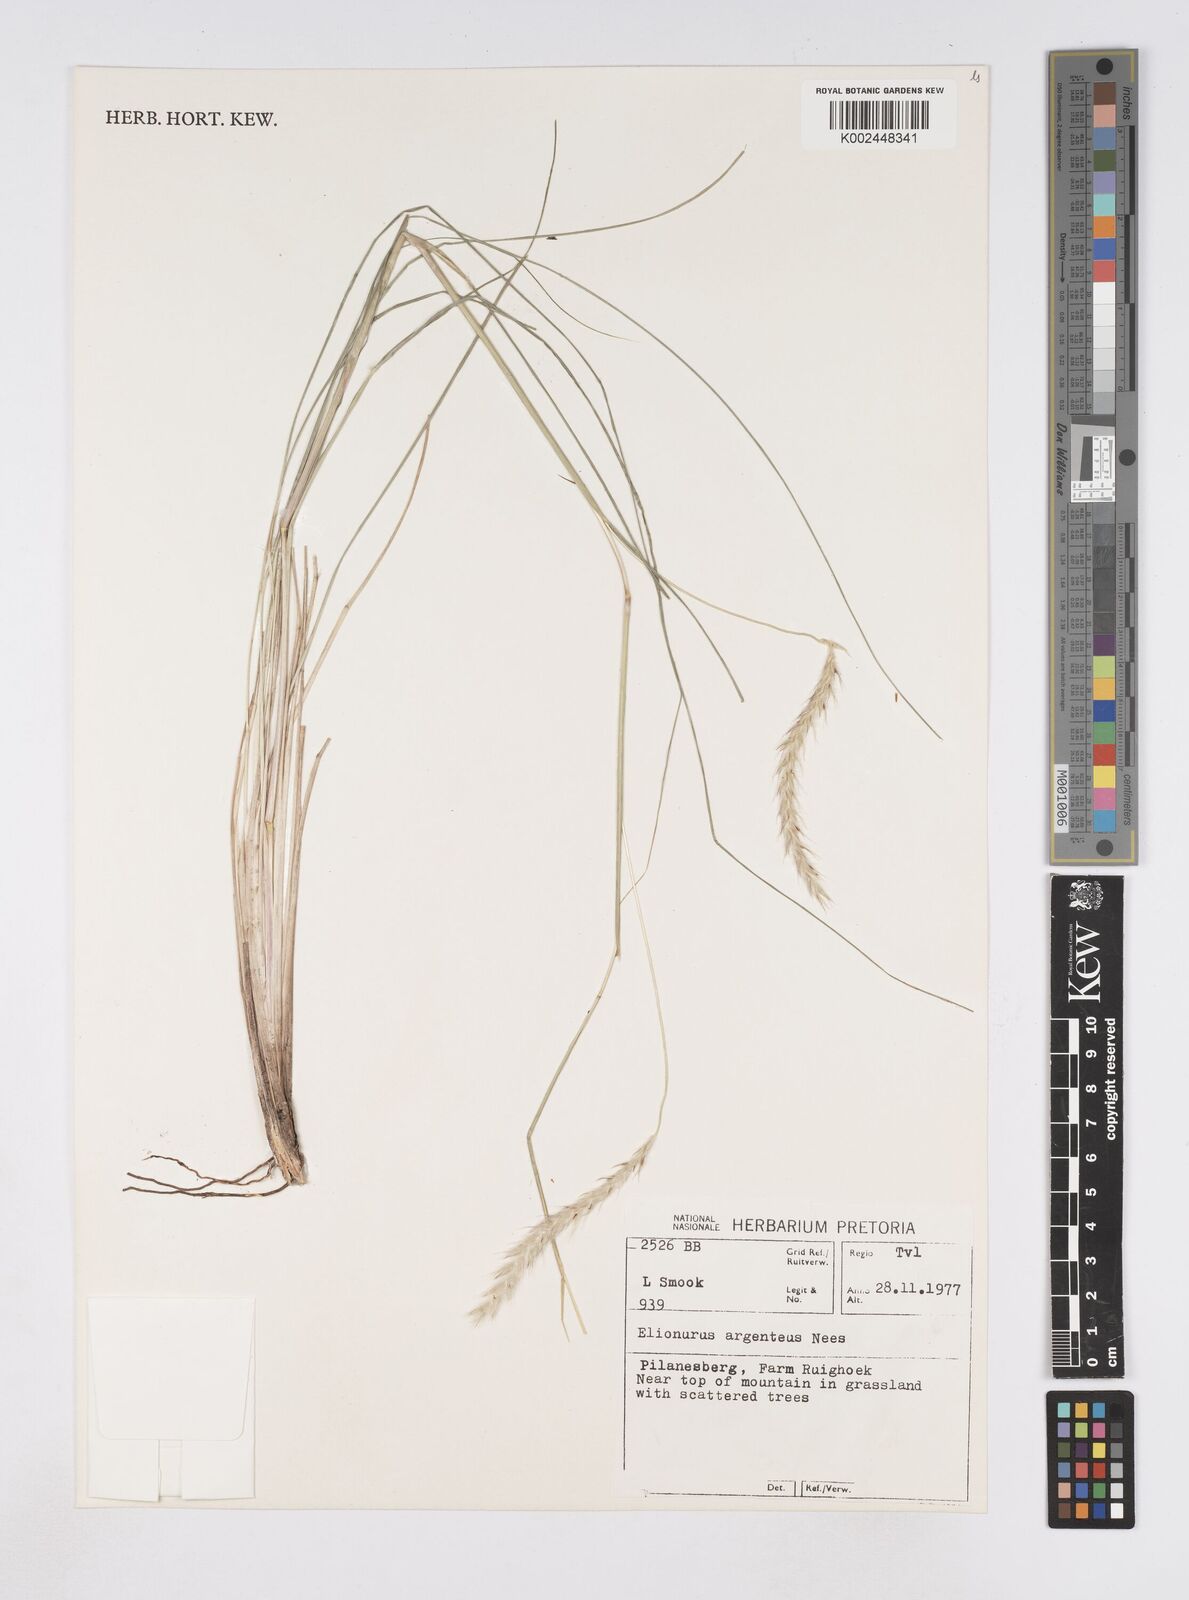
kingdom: Plantae
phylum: Tracheophyta
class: Liliopsida
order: Poales
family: Poaceae
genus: Elionurus
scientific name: Elionurus muticus
